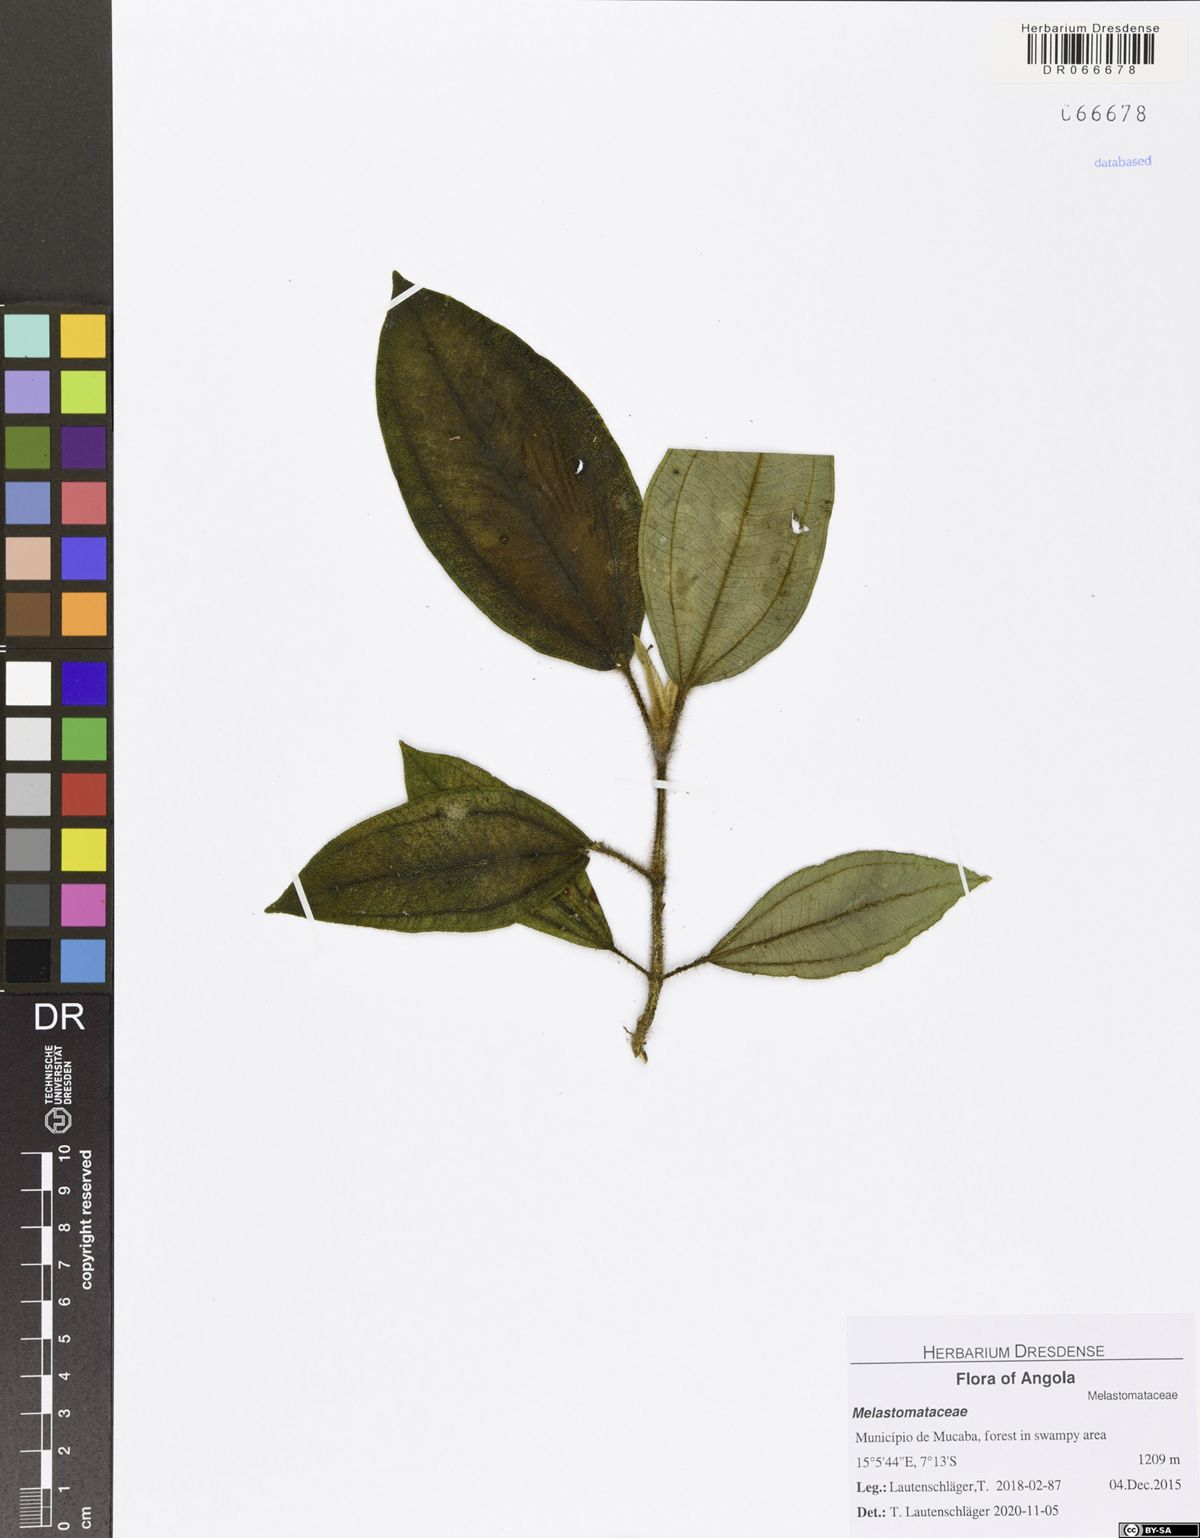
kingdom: Plantae
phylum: Tracheophyta
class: Magnoliopsida
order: Myrtales
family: Melastomataceae
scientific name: Melastomataceae
